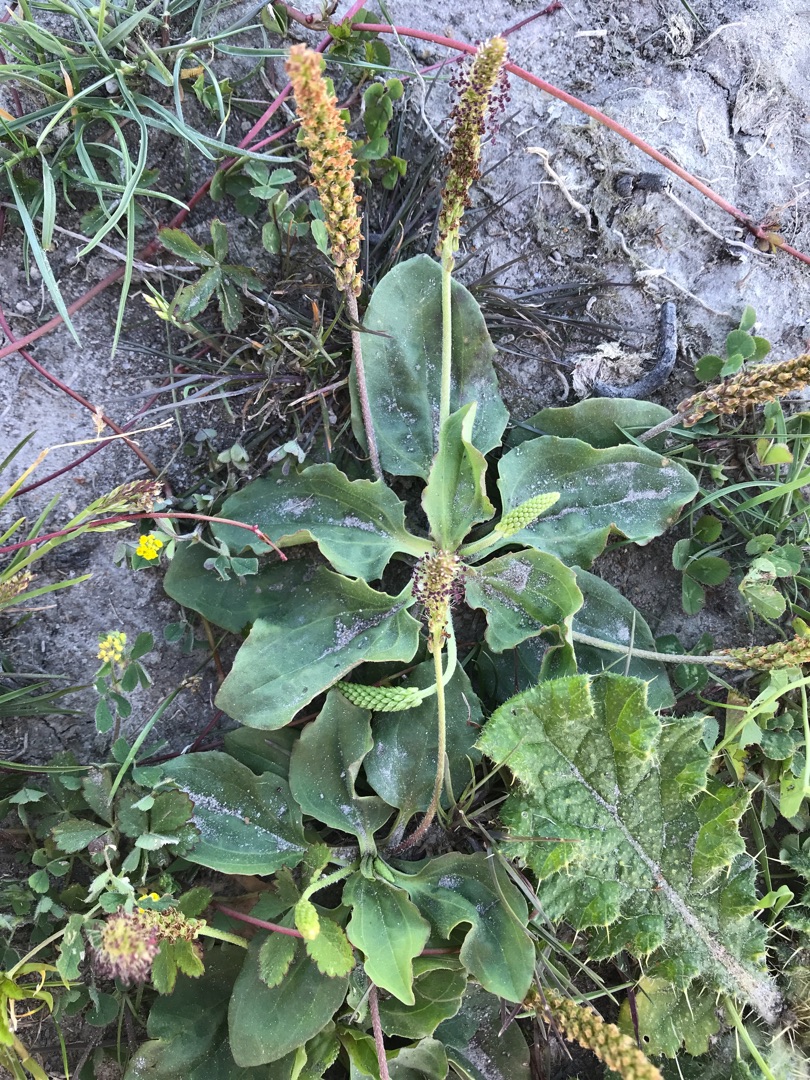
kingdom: Plantae
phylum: Tracheophyta
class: Magnoliopsida
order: Lamiales
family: Plantaginaceae
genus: Plantago
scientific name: Plantago major
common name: Glat vejbred
